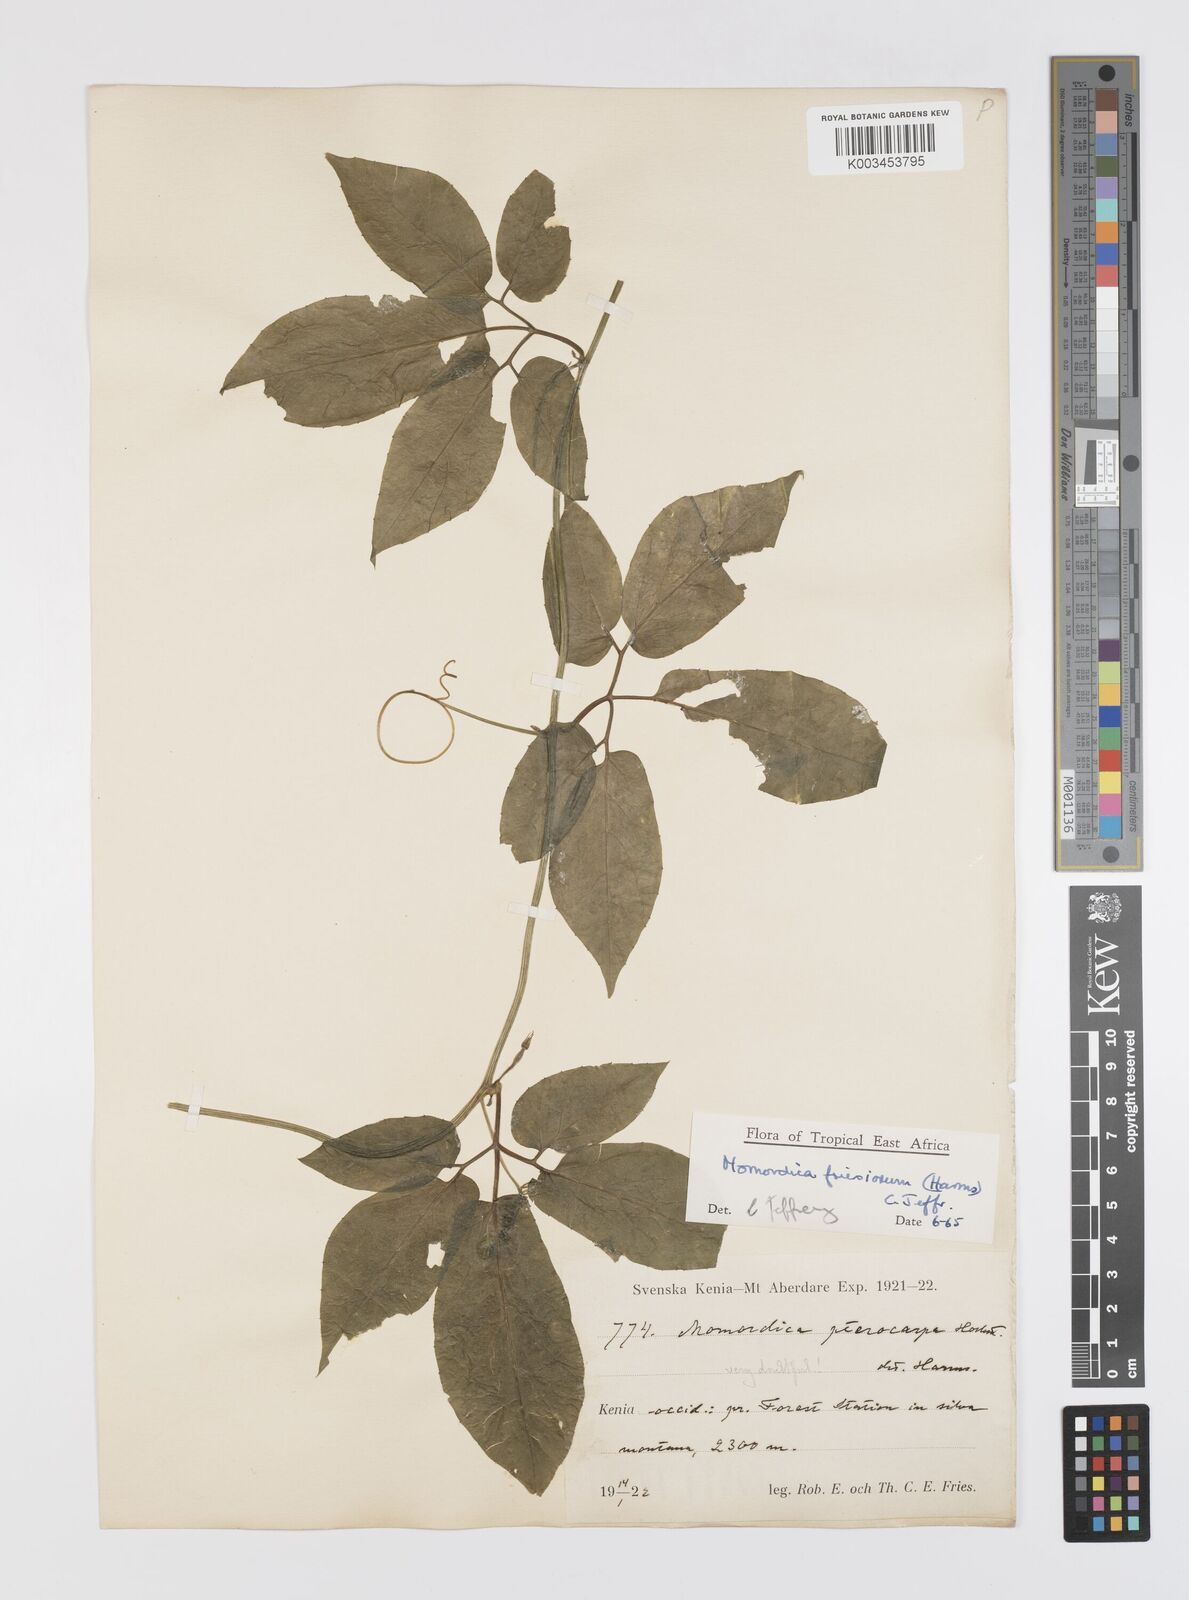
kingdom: Plantae
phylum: Tracheophyta
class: Magnoliopsida
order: Cucurbitales
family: Cucurbitaceae
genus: Momordica
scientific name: Momordica friesiorum
